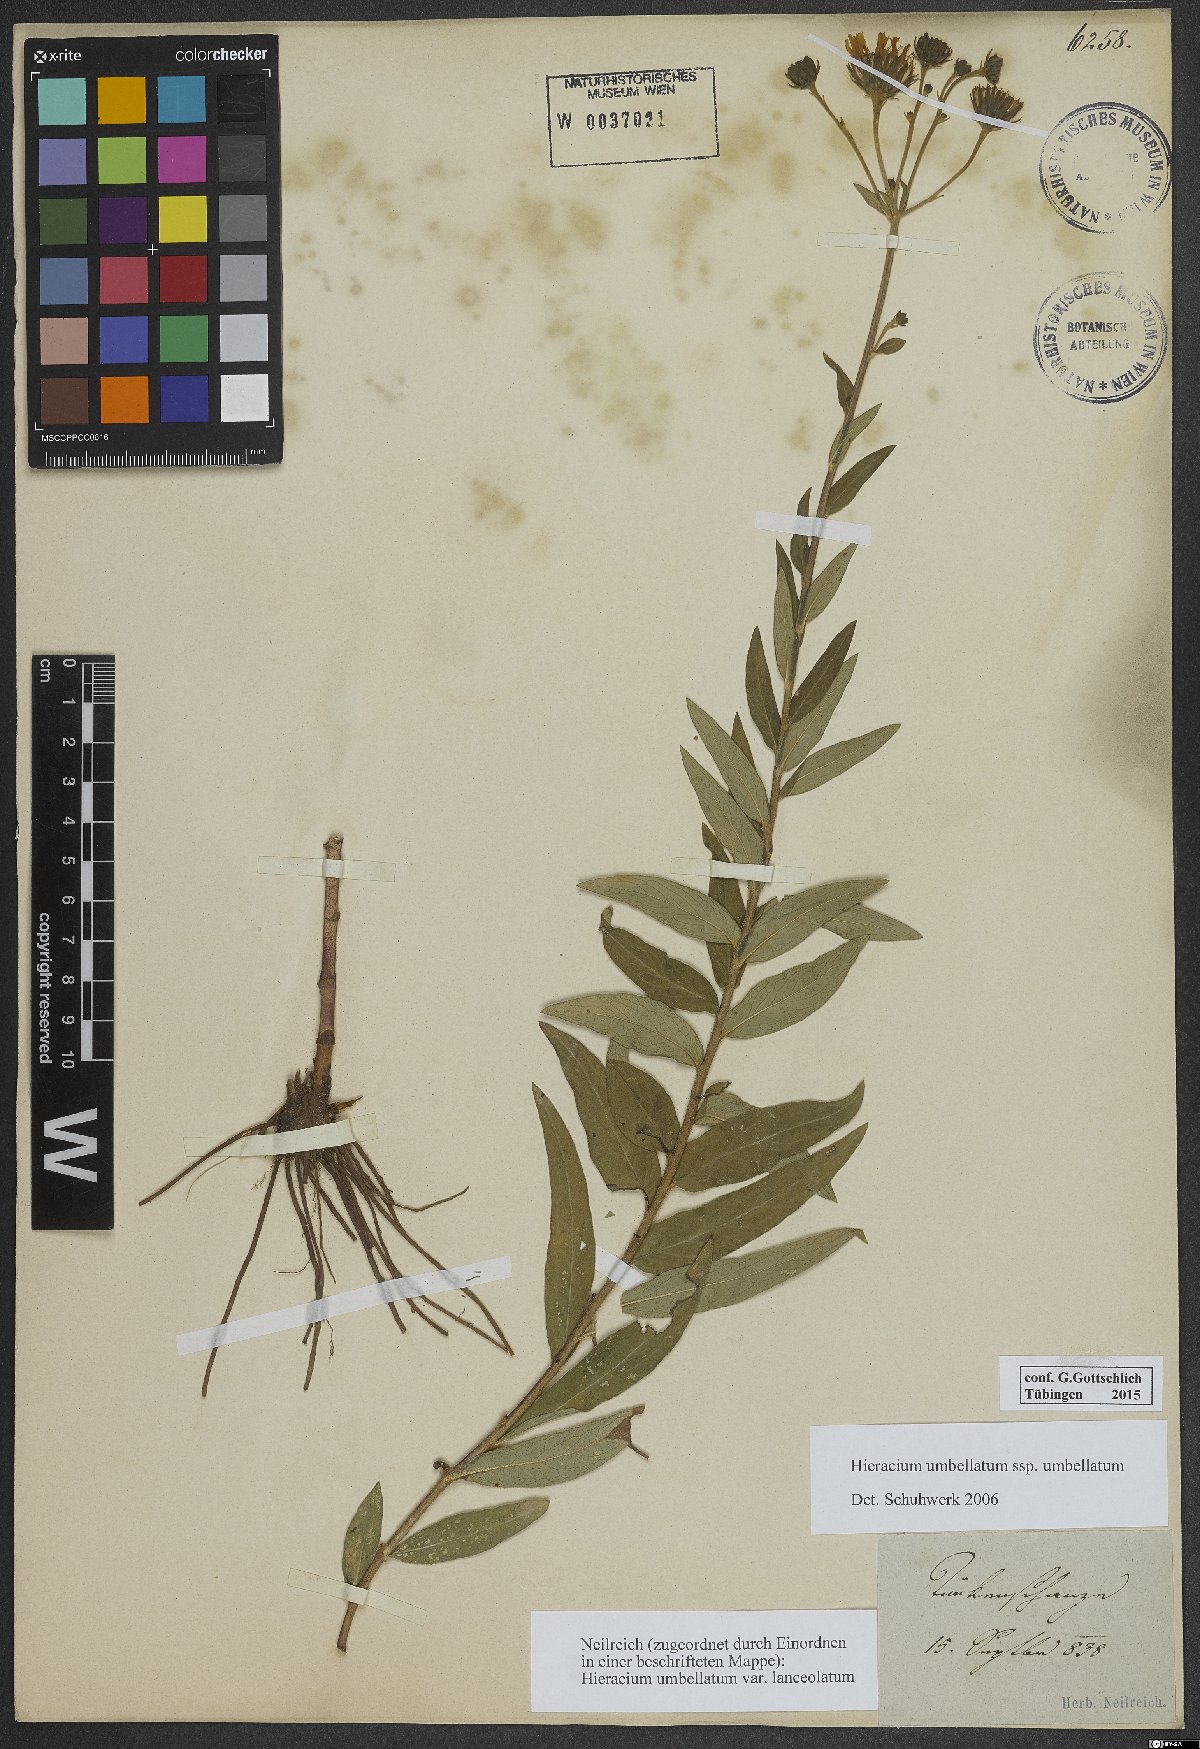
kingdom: Plantae
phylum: Tracheophyta
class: Magnoliopsida
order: Asterales
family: Asteraceae
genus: Hieracium
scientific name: Hieracium umbellatum
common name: Northern hawkweed
